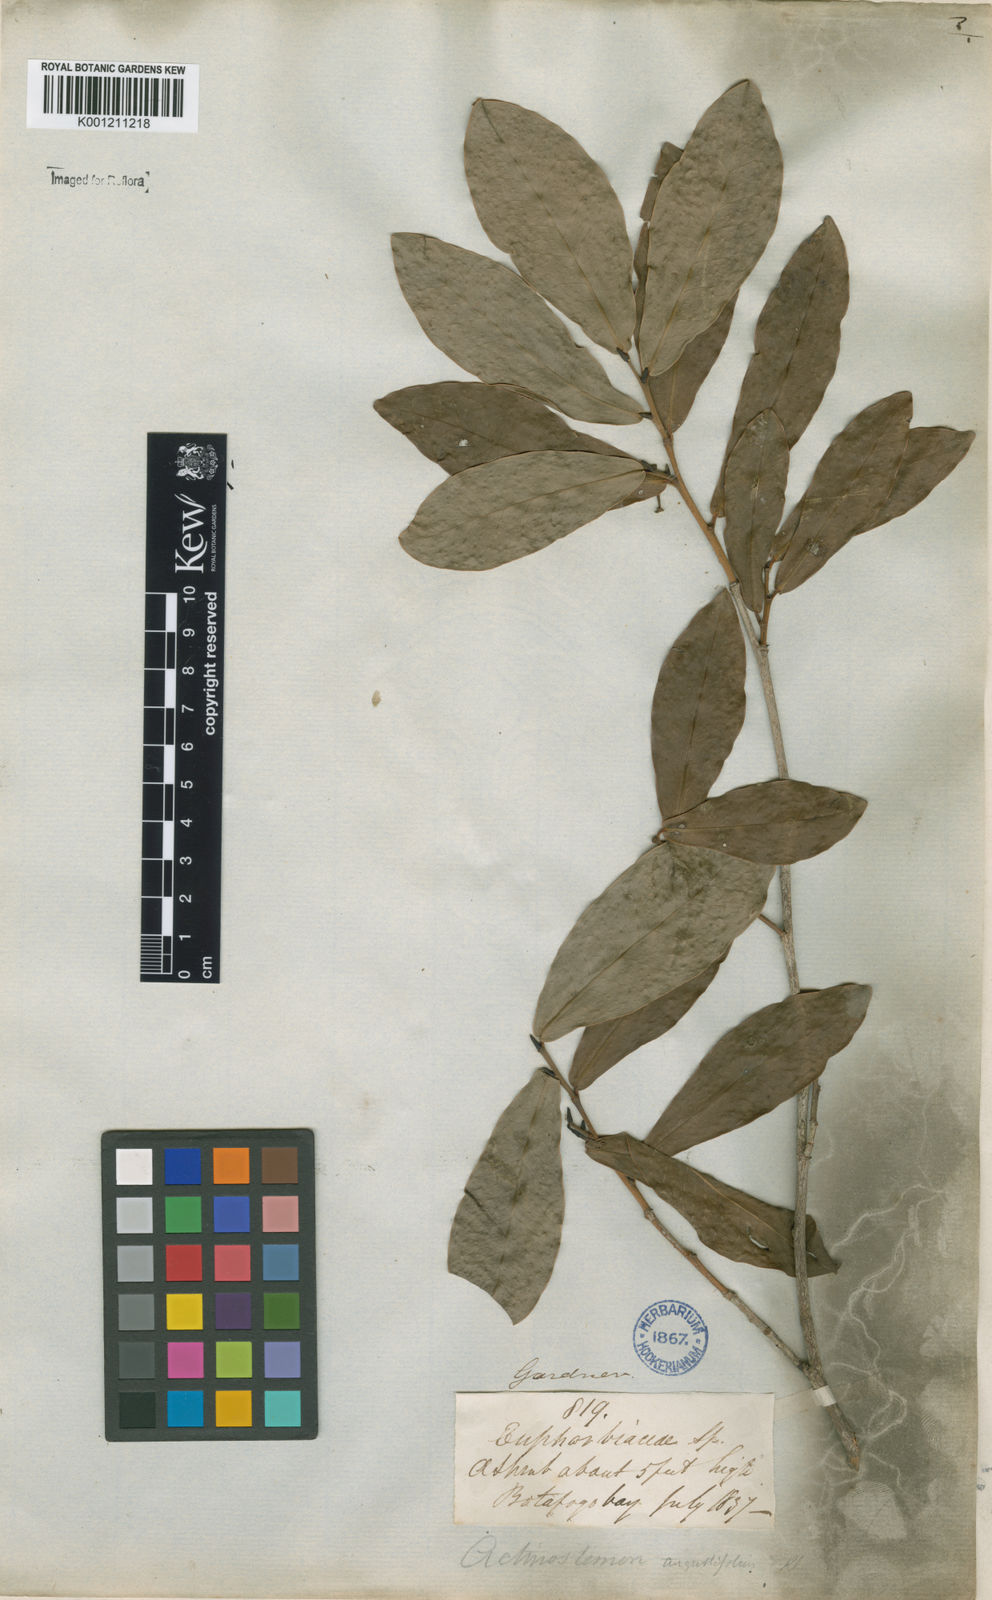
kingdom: Plantae
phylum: Tracheophyta
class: Magnoliopsida
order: Malpighiales
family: Euphorbiaceae
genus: Actinostemon
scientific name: Actinostemon
